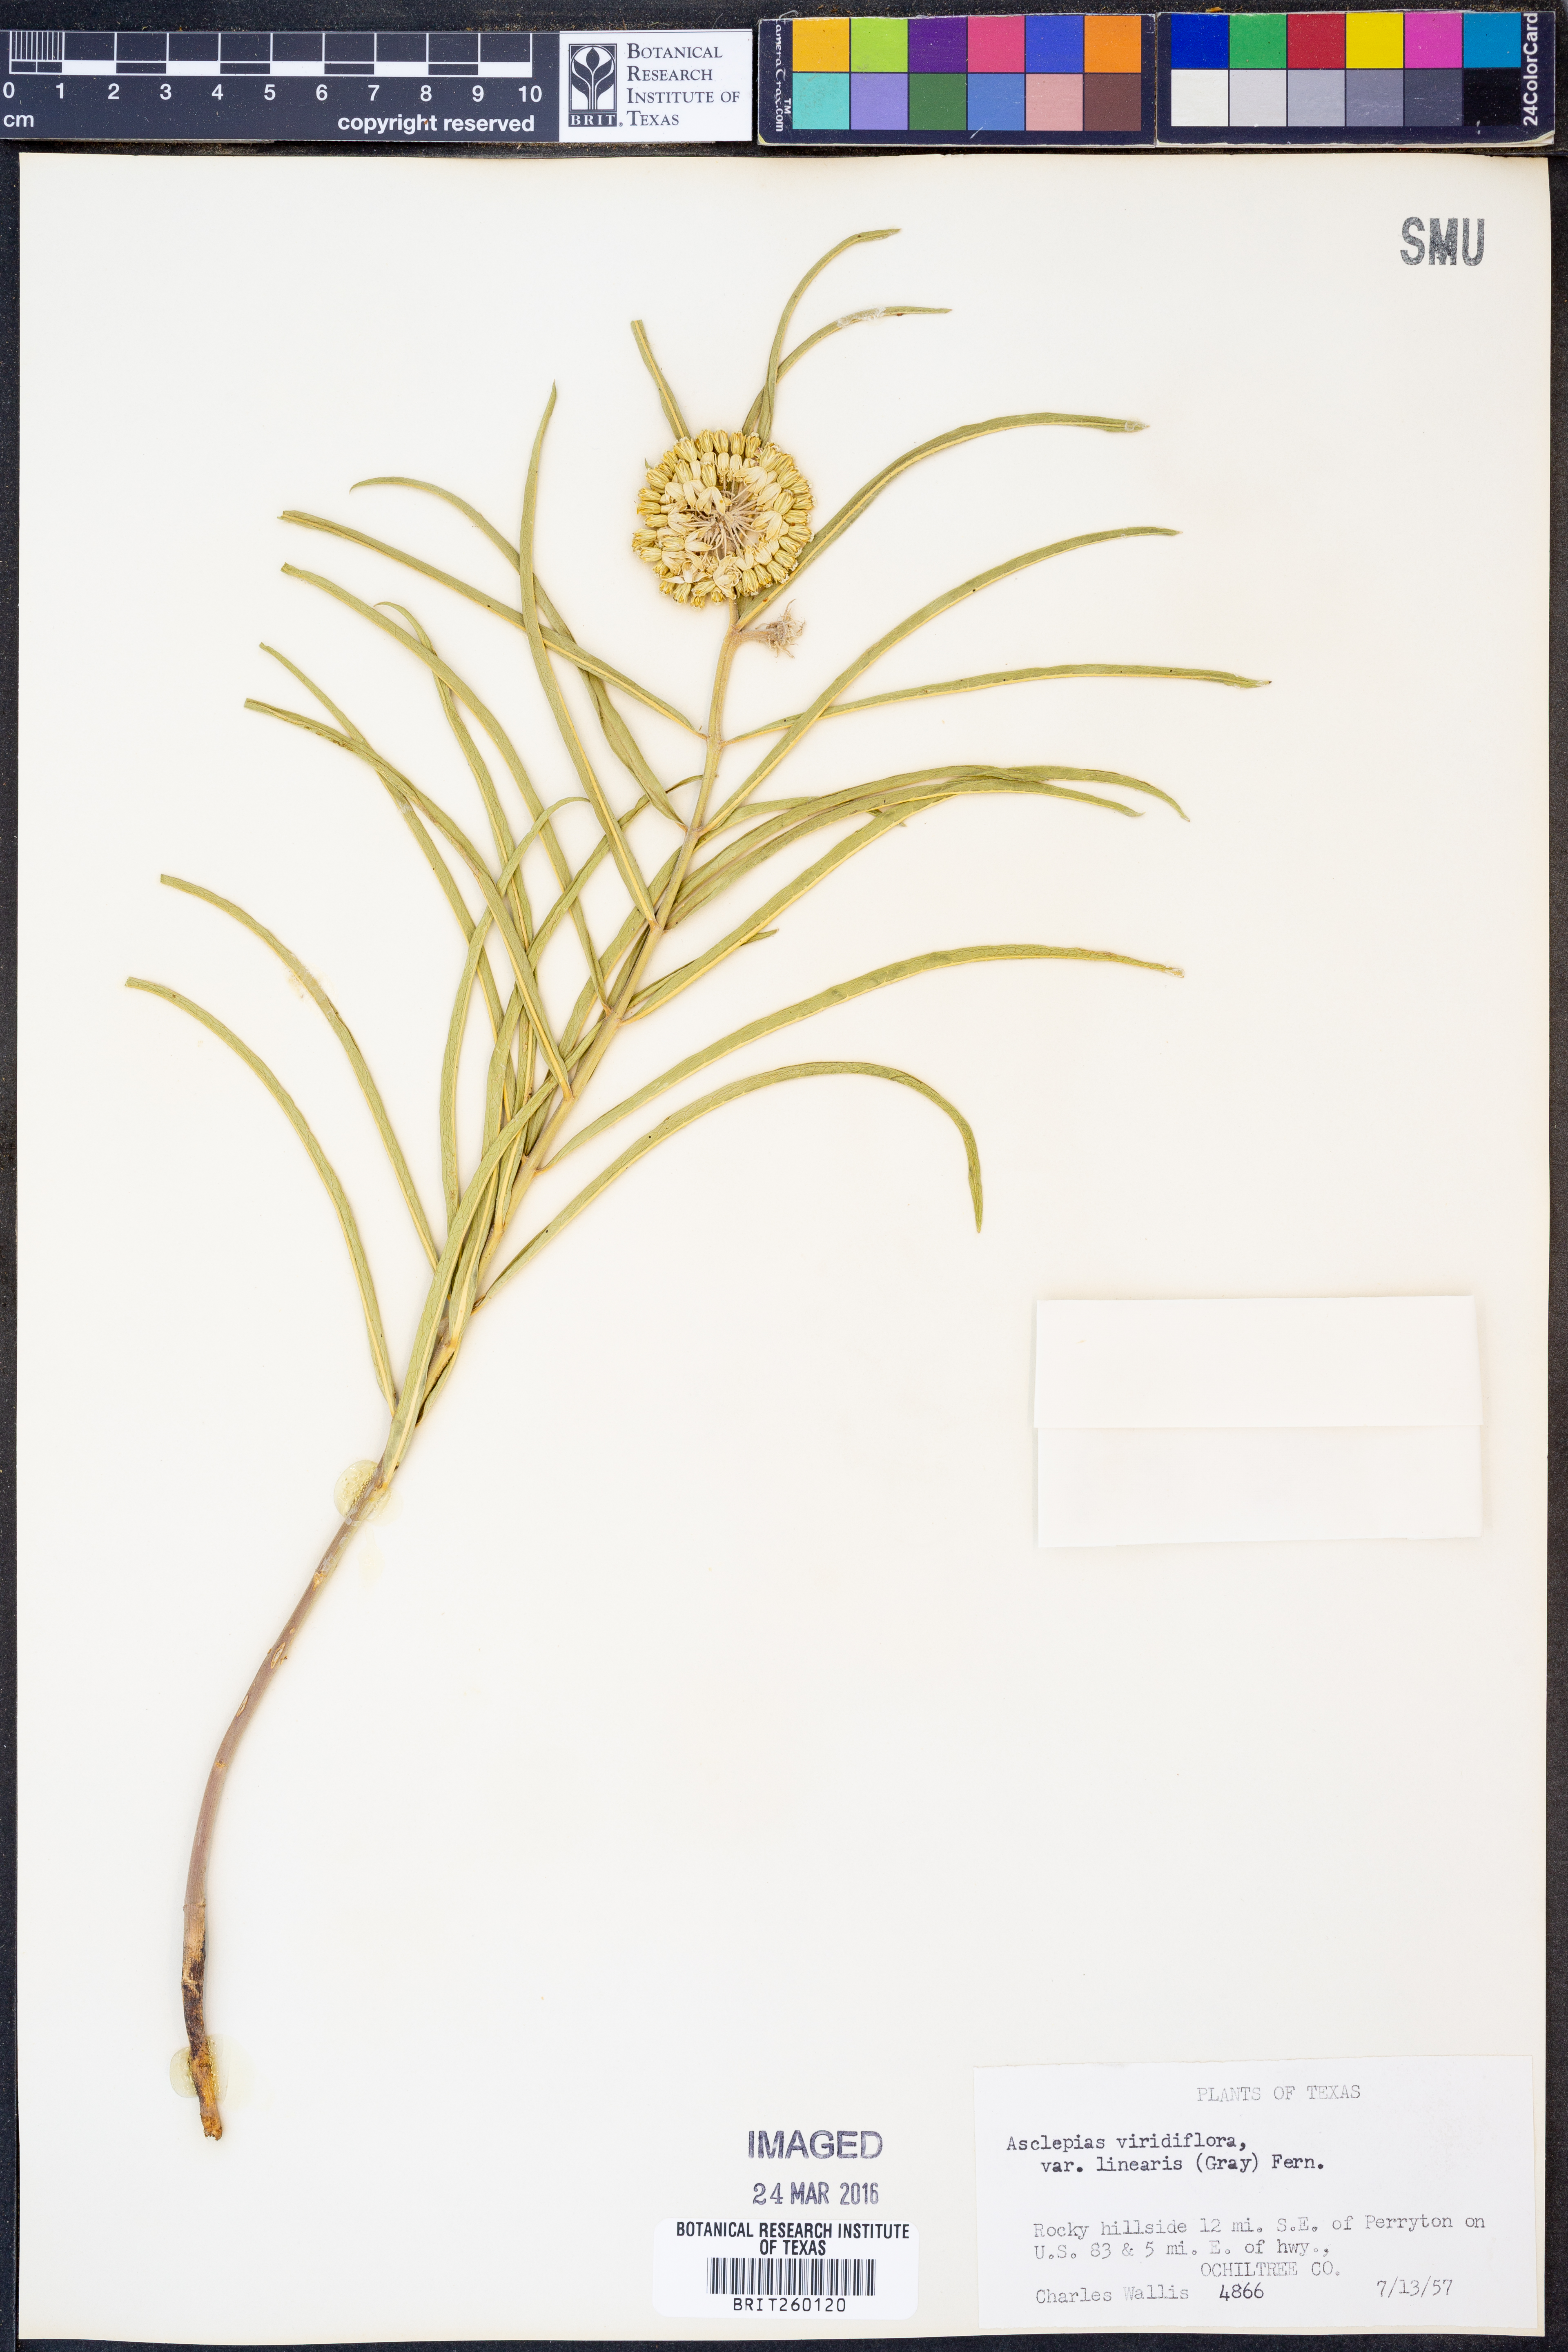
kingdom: Plantae
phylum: Tracheophyta
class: Magnoliopsida
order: Gentianales
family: Apocynaceae
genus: Asclepias
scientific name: Asclepias linearis
